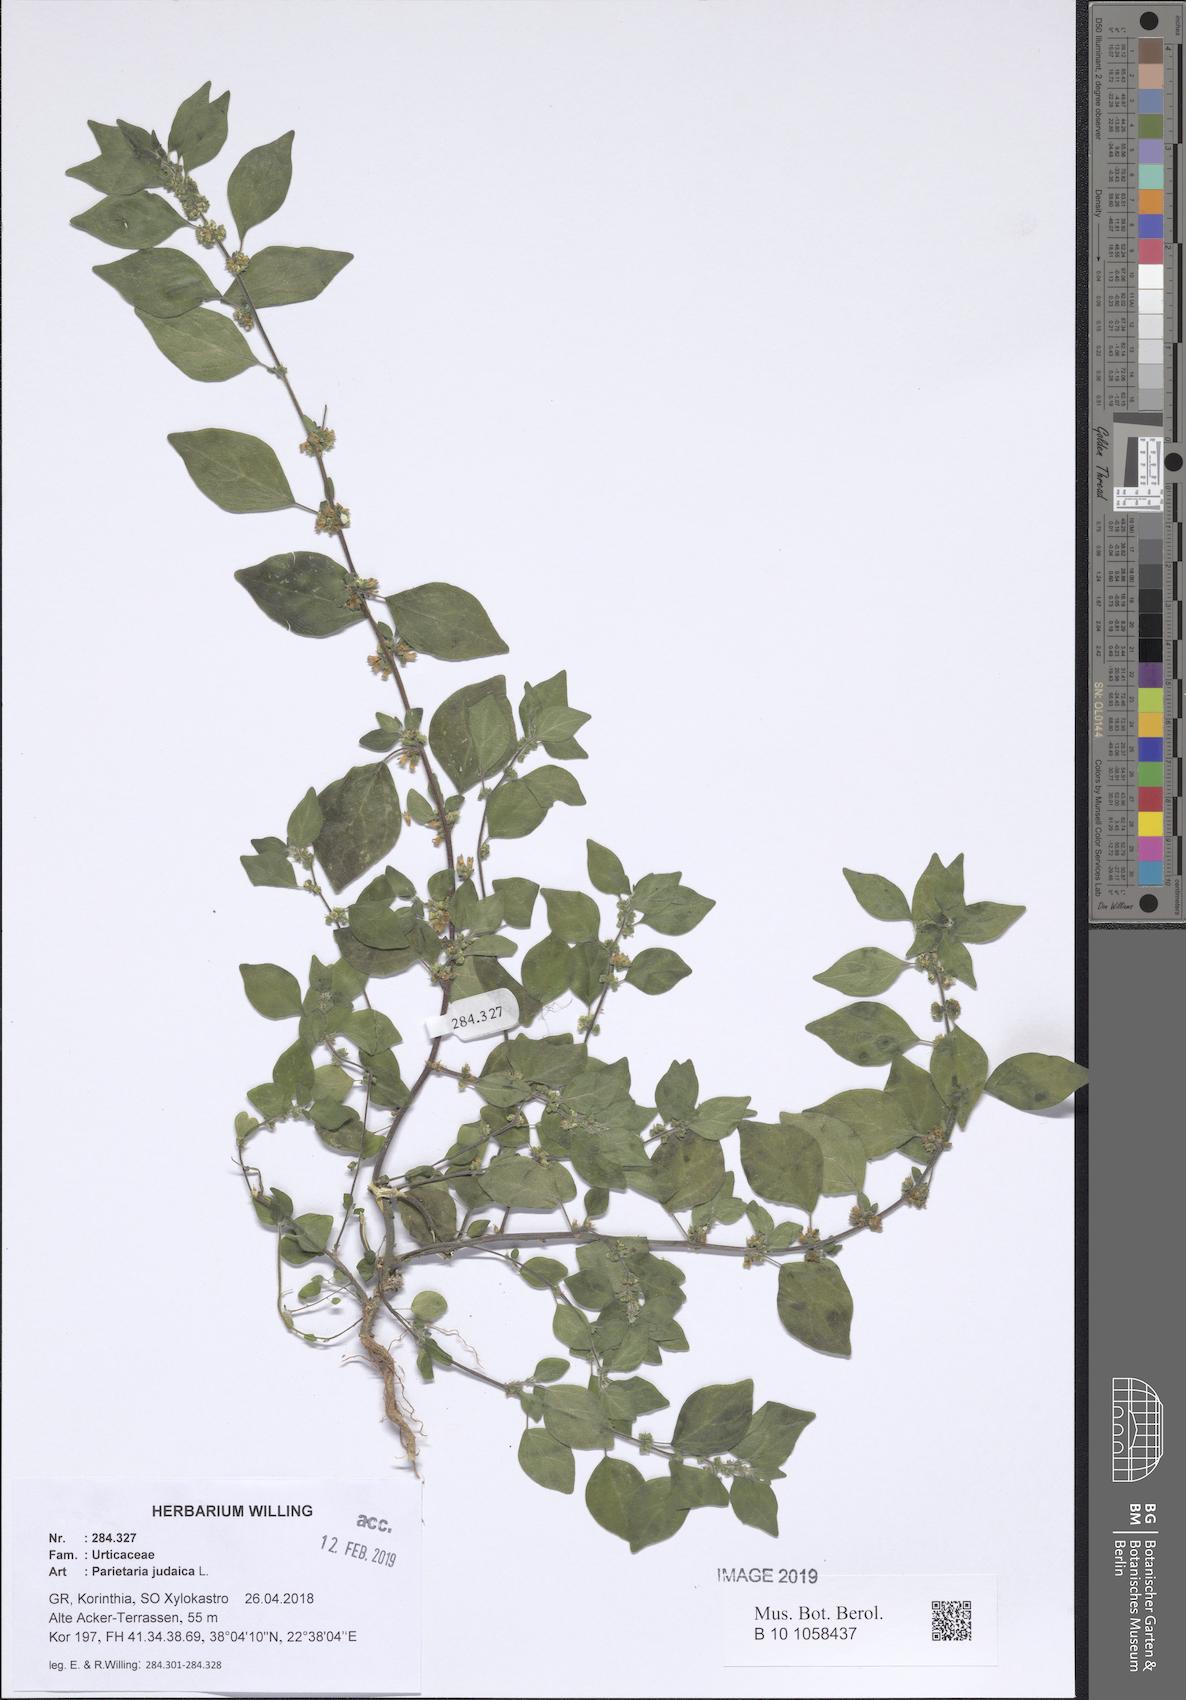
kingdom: Plantae
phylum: Tracheophyta
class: Magnoliopsida
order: Rosales
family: Urticaceae
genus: Parietaria
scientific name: Parietaria judaica
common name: Pellitory-of-the-wall
